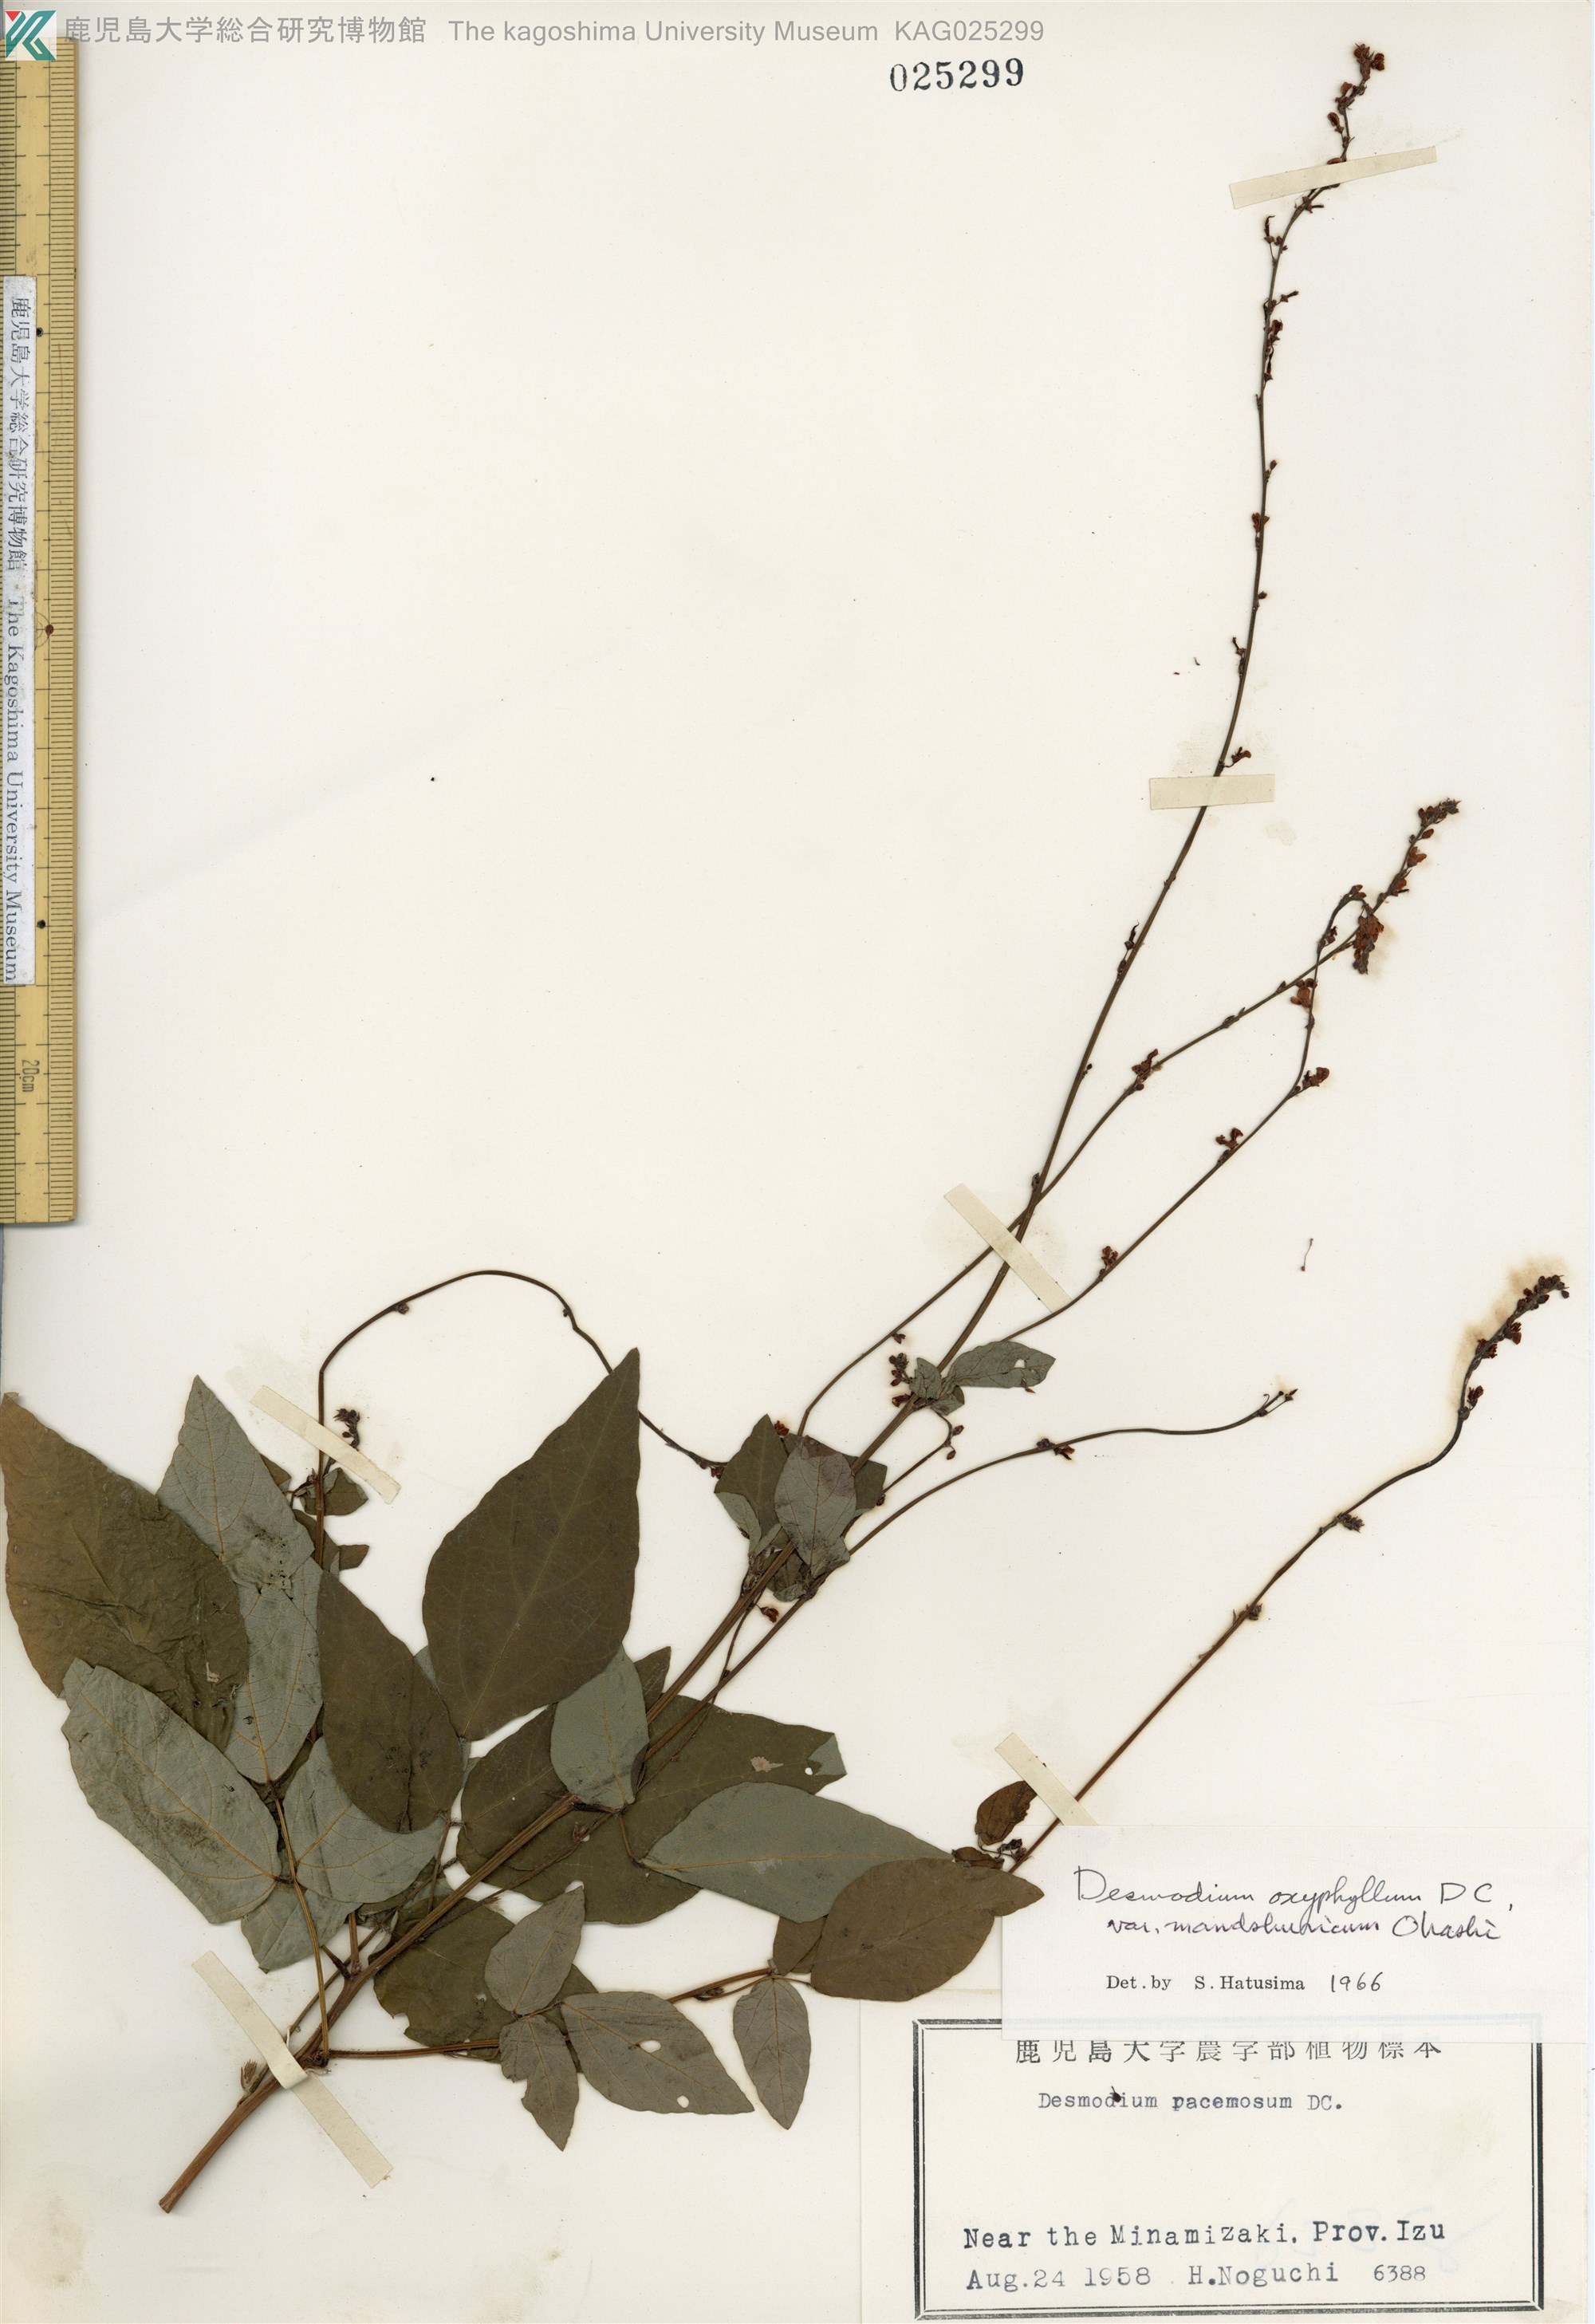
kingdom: Plantae
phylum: Tracheophyta
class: Magnoliopsida
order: Fabales
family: Fabaceae
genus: Hylodesmum
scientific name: Hylodesmum podocarpum
